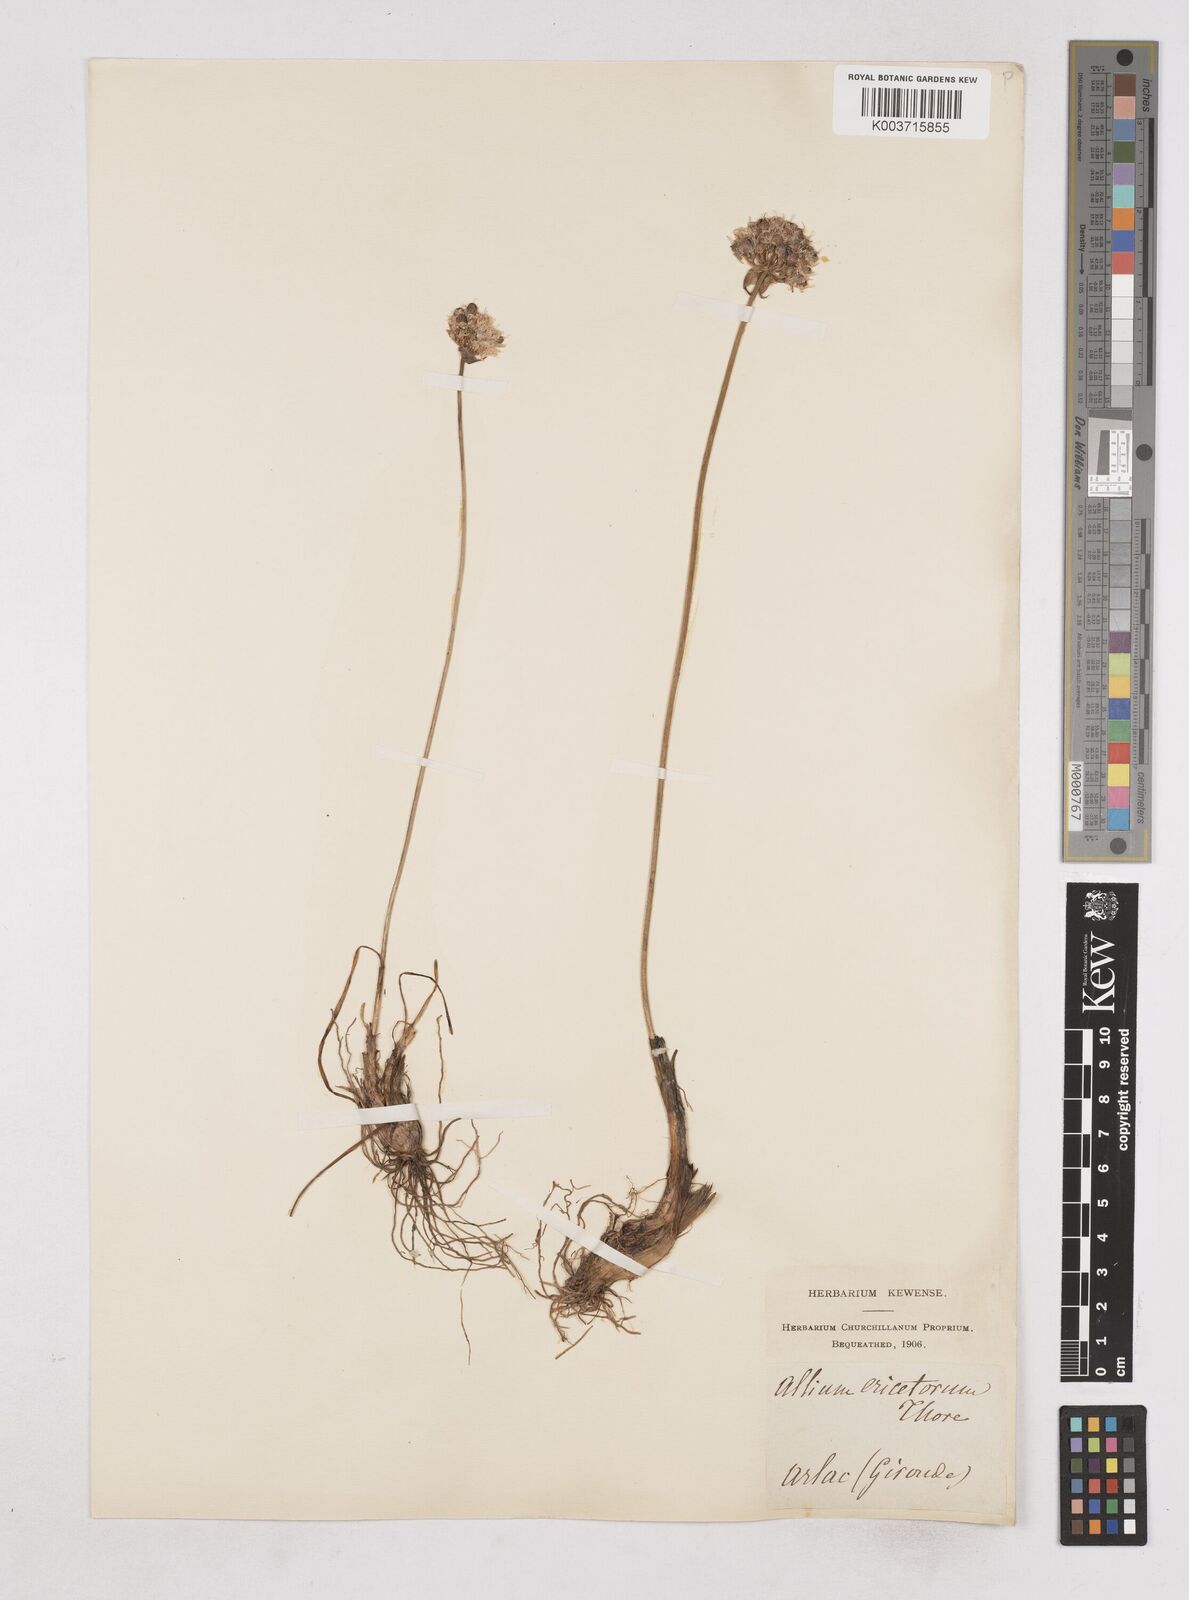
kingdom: Plantae
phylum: Tracheophyta
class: Liliopsida
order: Asparagales
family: Amaryllidaceae
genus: Allium
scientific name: Allium ericetorum
